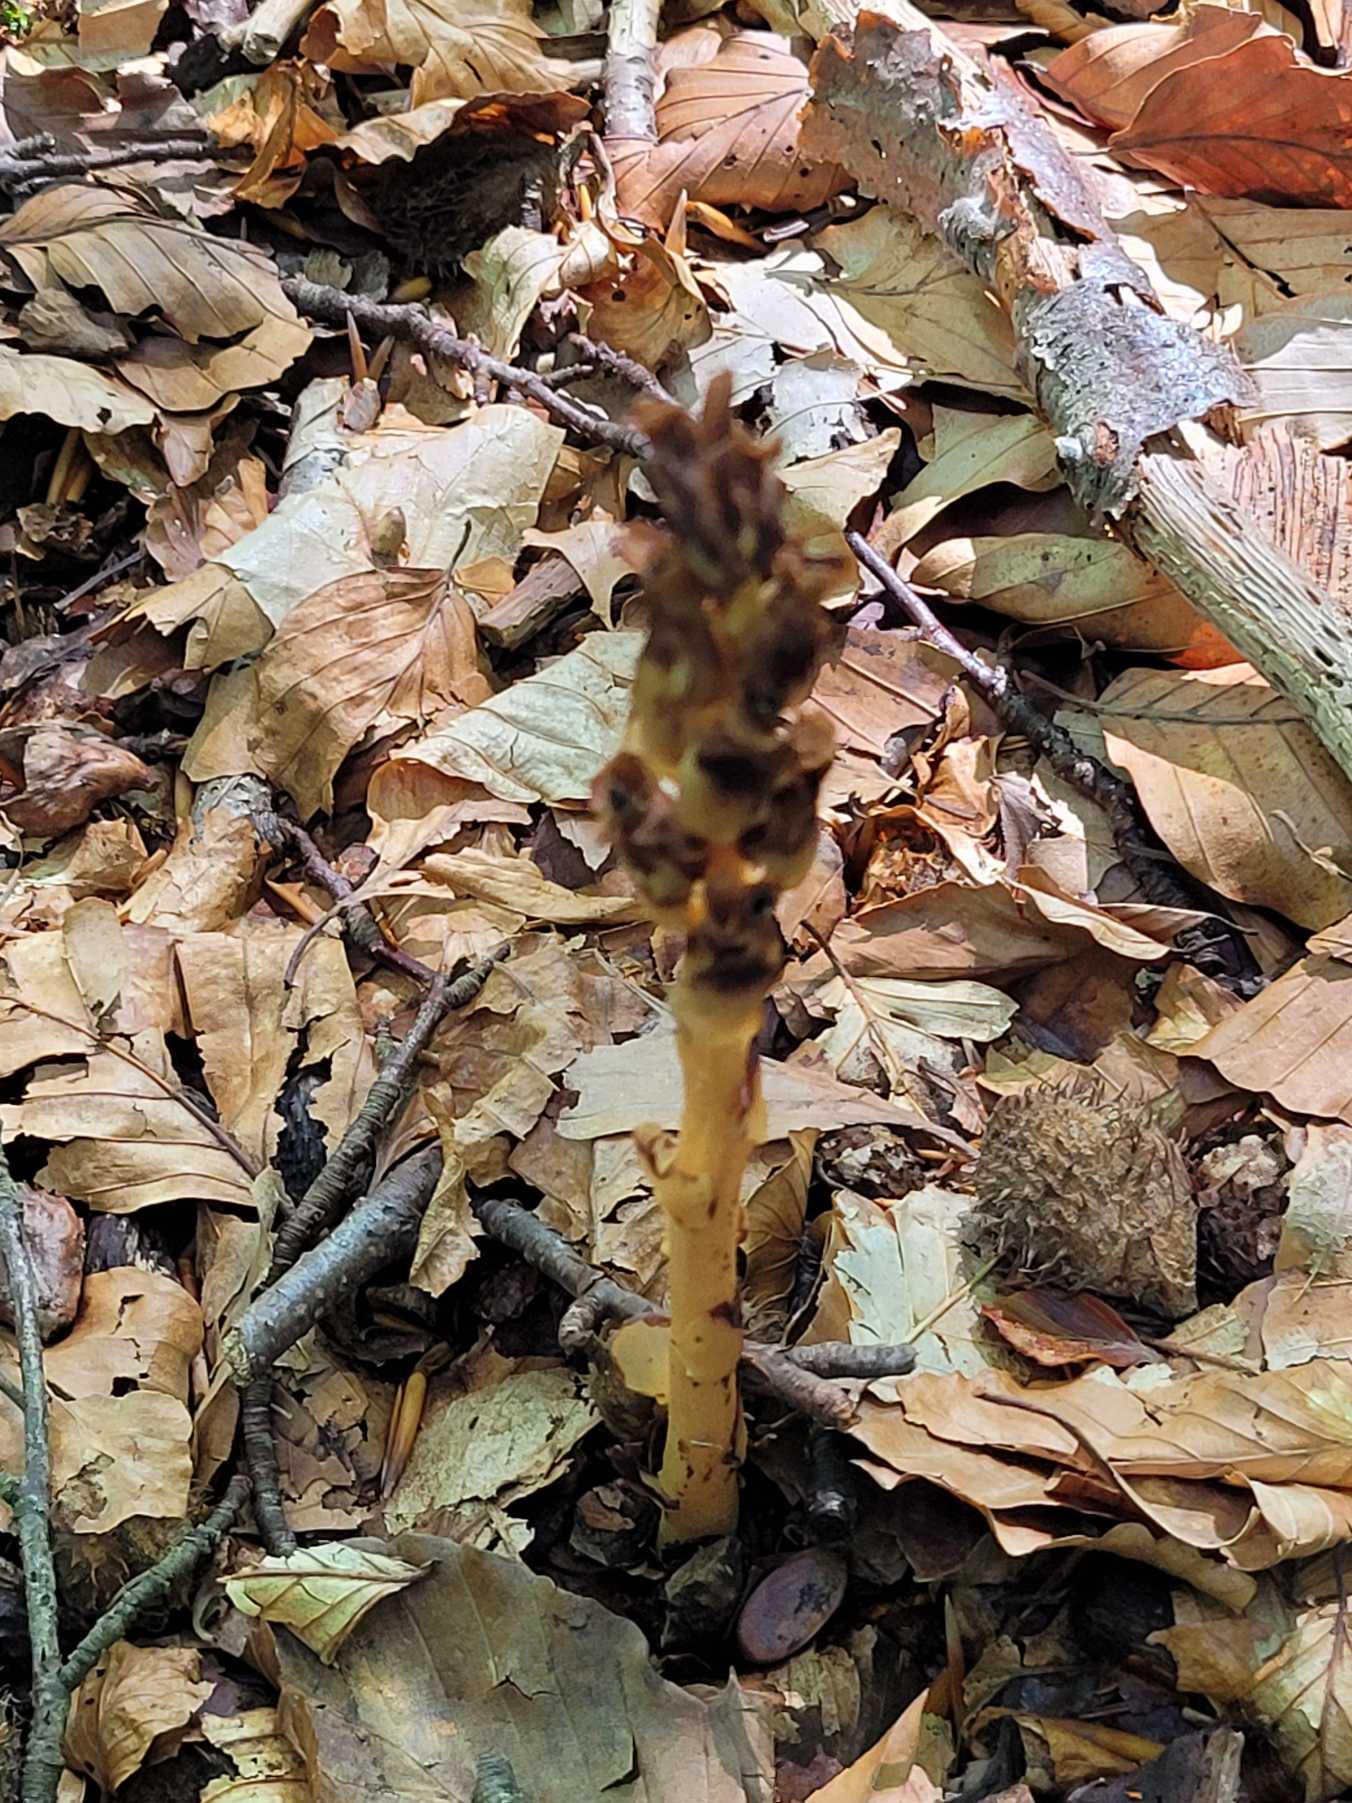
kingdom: Plantae
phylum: Tracheophyta
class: Magnoliopsida
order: Ericales
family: Ericaceae
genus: Hypopitys
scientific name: Hypopitys monotropa
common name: Snylterod
